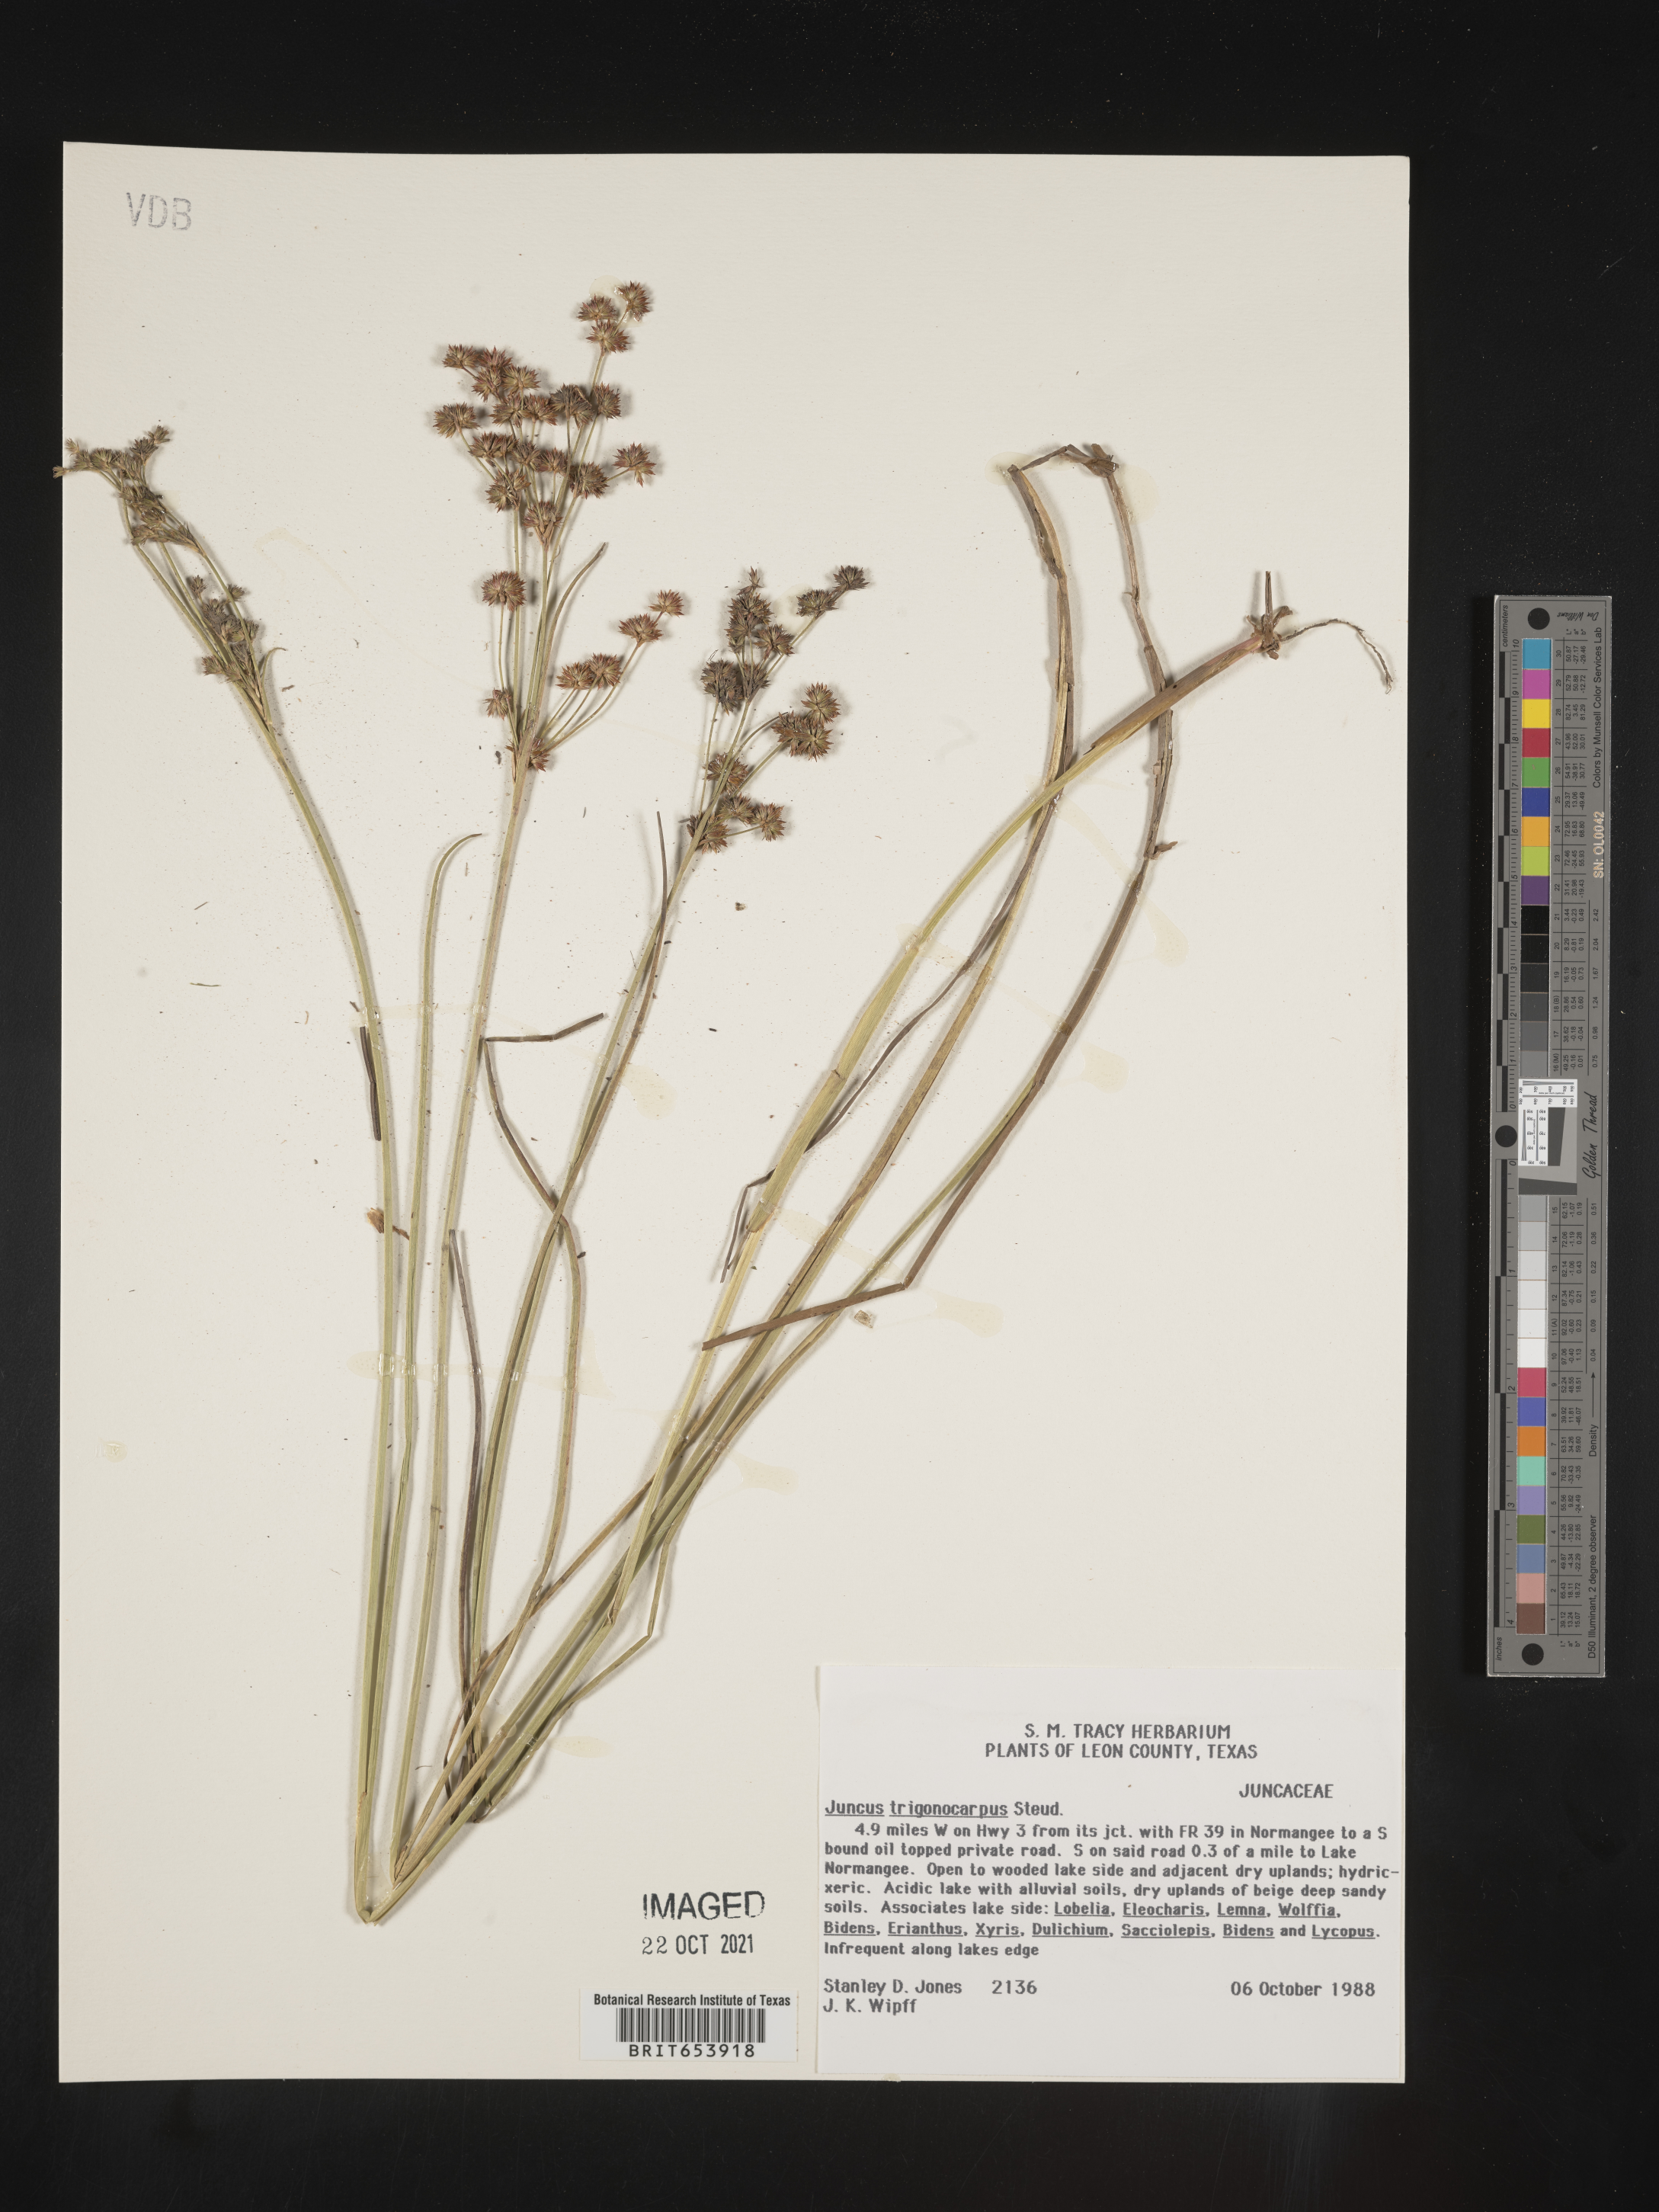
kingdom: Plantae
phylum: Tracheophyta
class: Liliopsida
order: Poales
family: Juncaceae
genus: Juncus
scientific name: Juncus trigonocarpus
